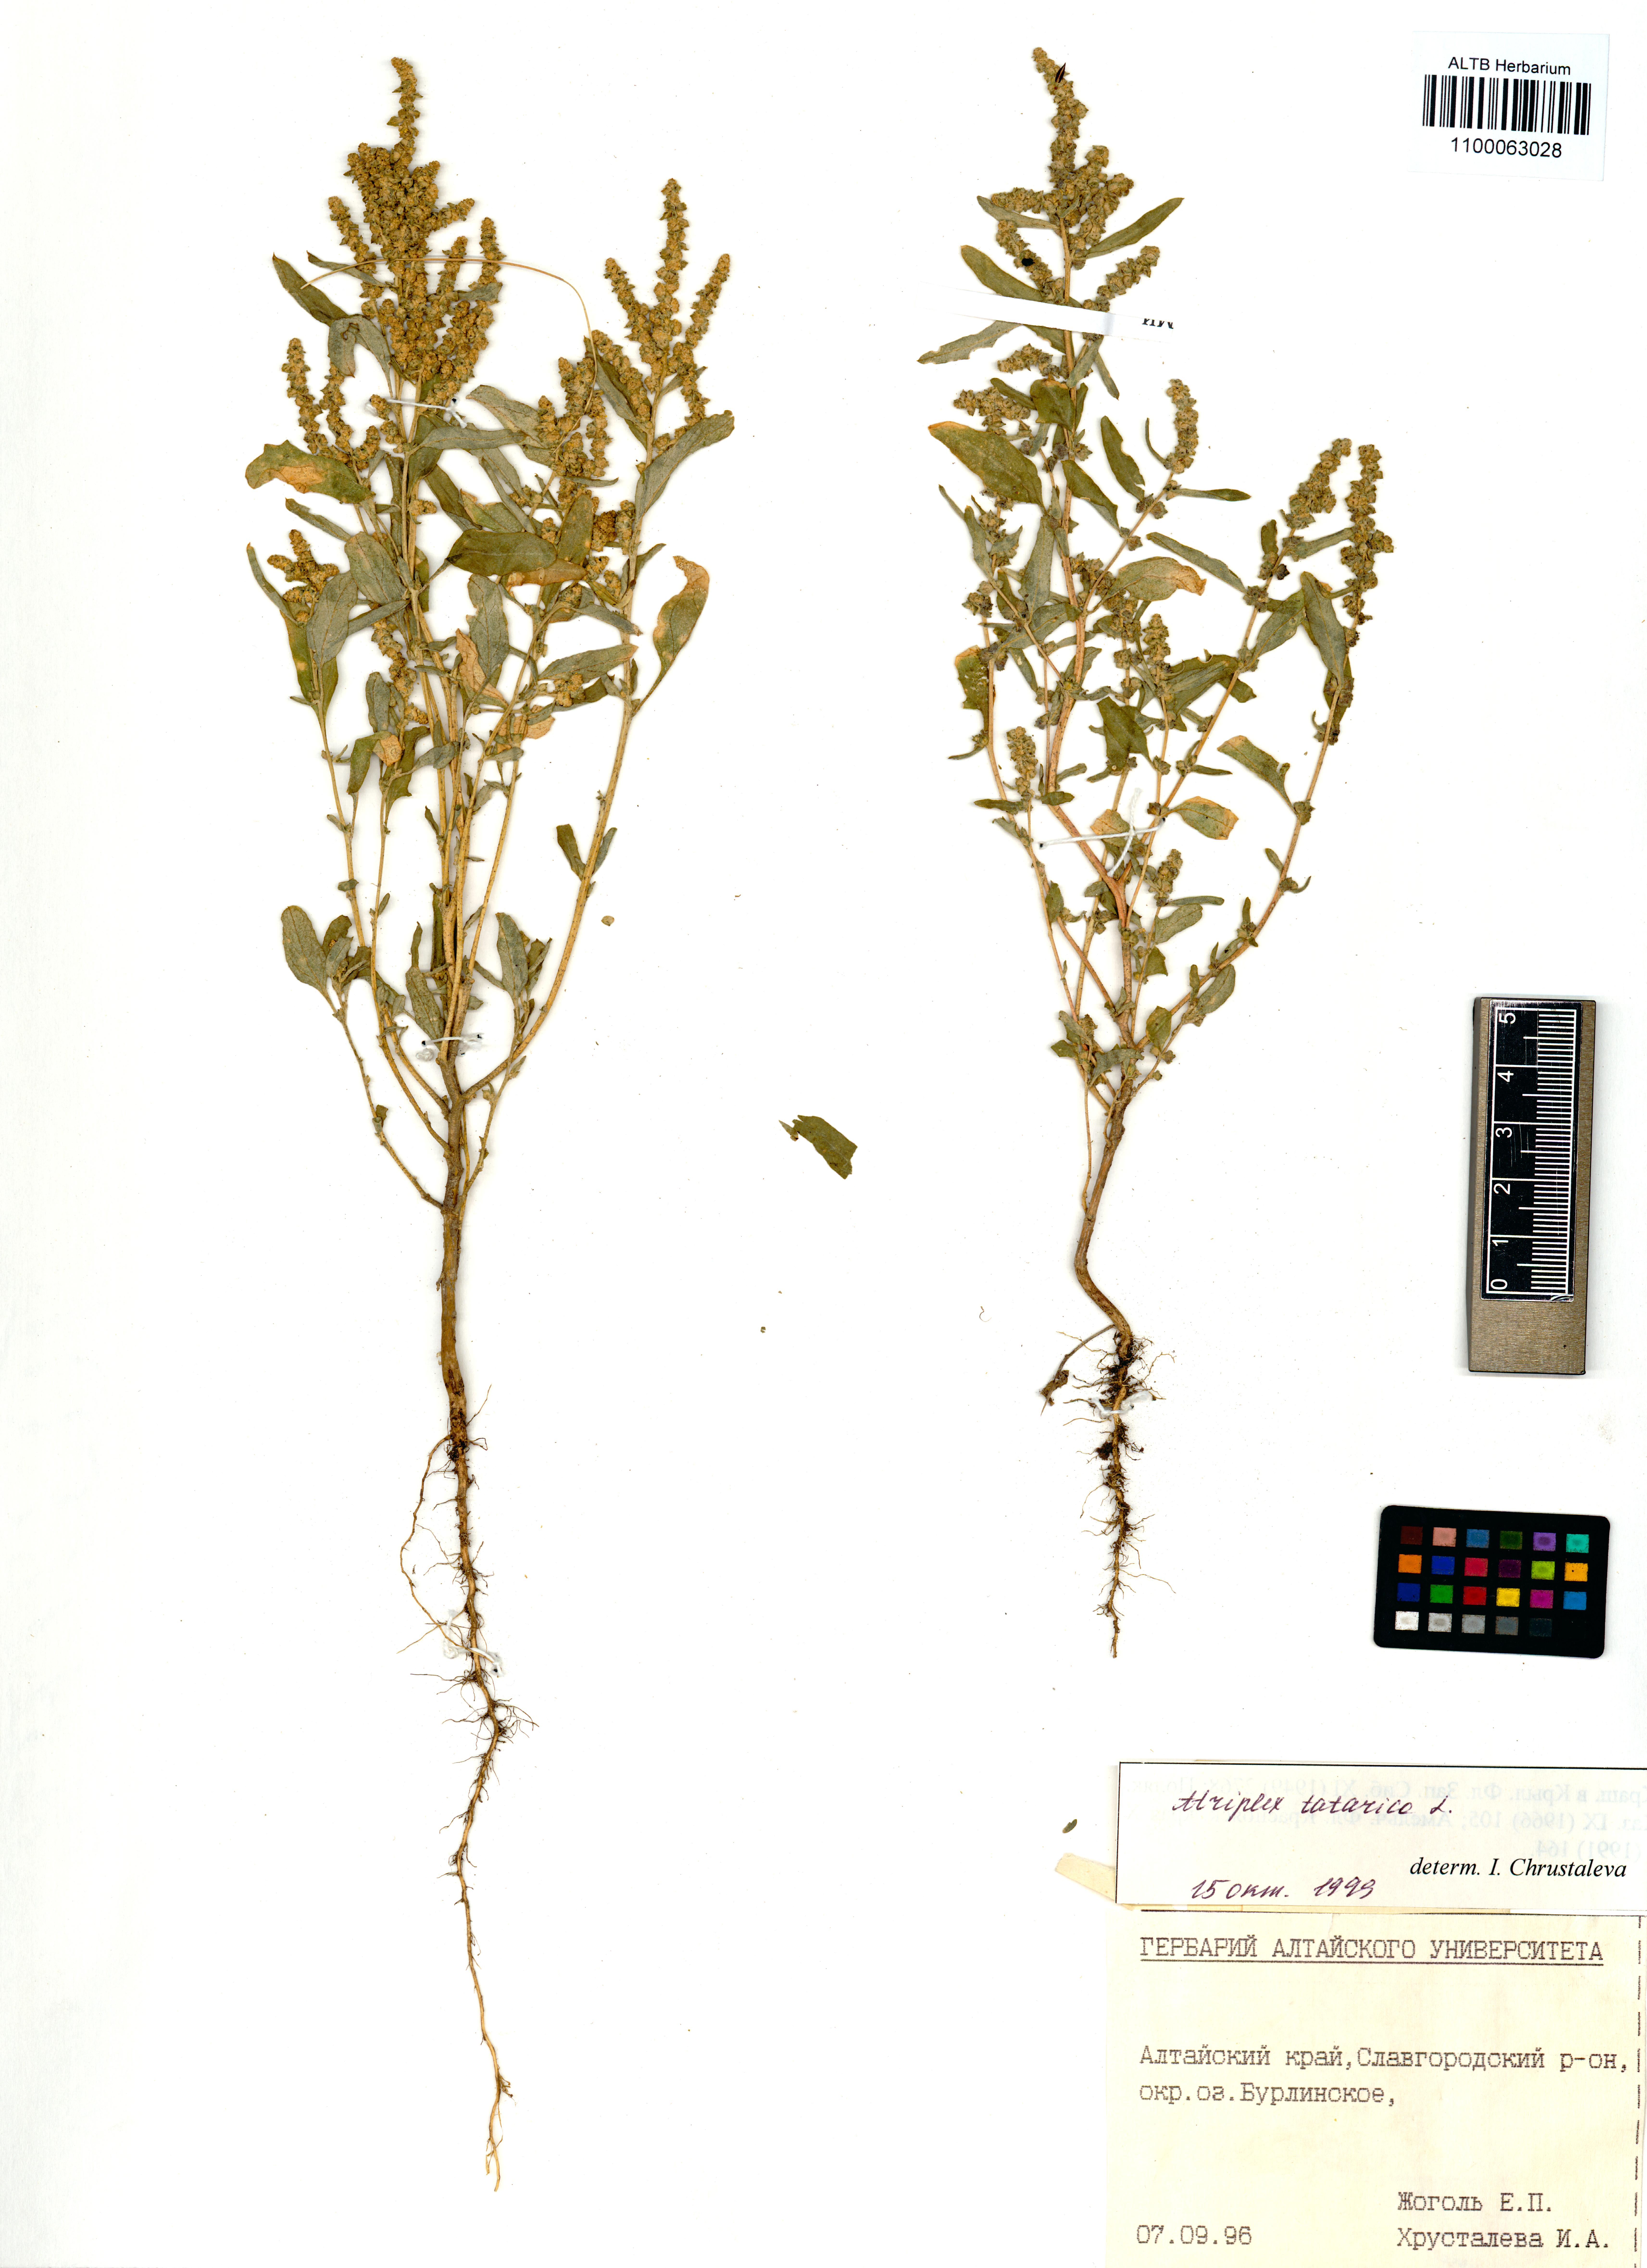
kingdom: Plantae
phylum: Tracheophyta
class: Magnoliopsida
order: Caryophyllales
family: Amaranthaceae
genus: Atriplex
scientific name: Atriplex tatarica
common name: Tatarian orache
